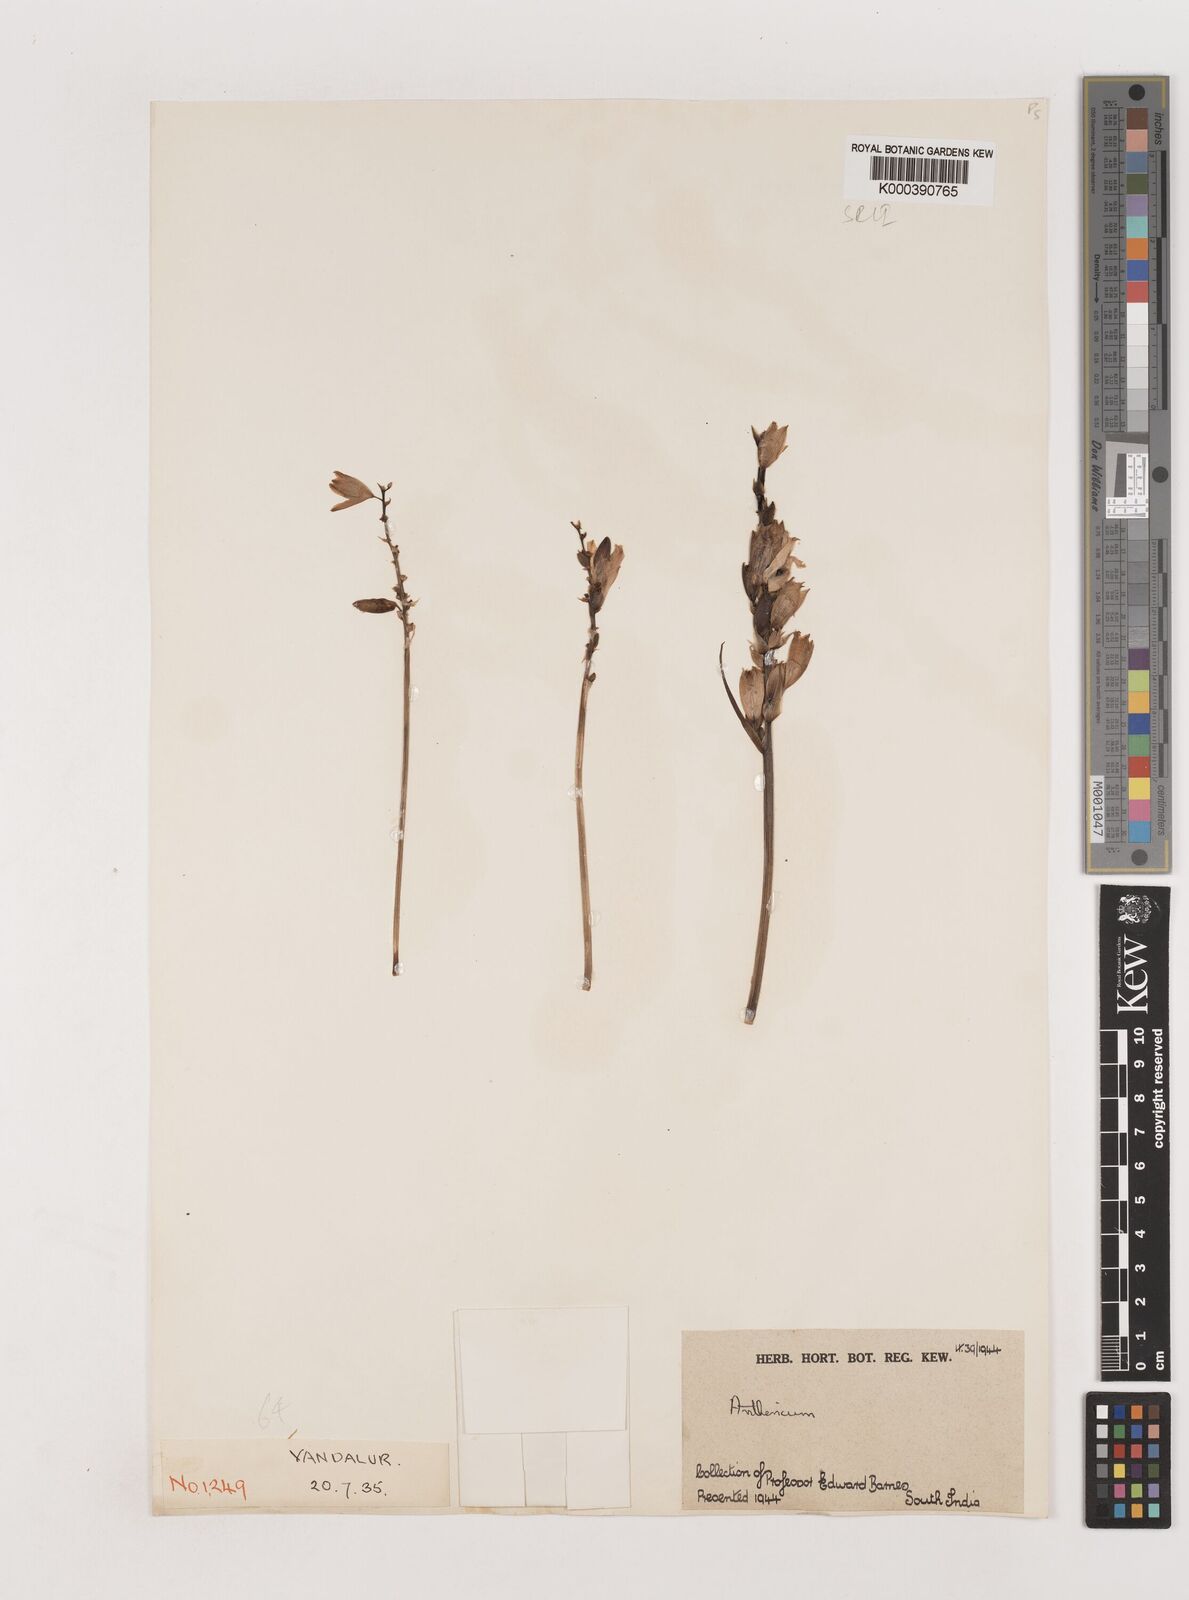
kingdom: Plantae
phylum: Tracheophyta
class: Liliopsida
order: Asparagales
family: Asparagaceae
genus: Chlorophytum
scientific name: Chlorophytum tuberosum
